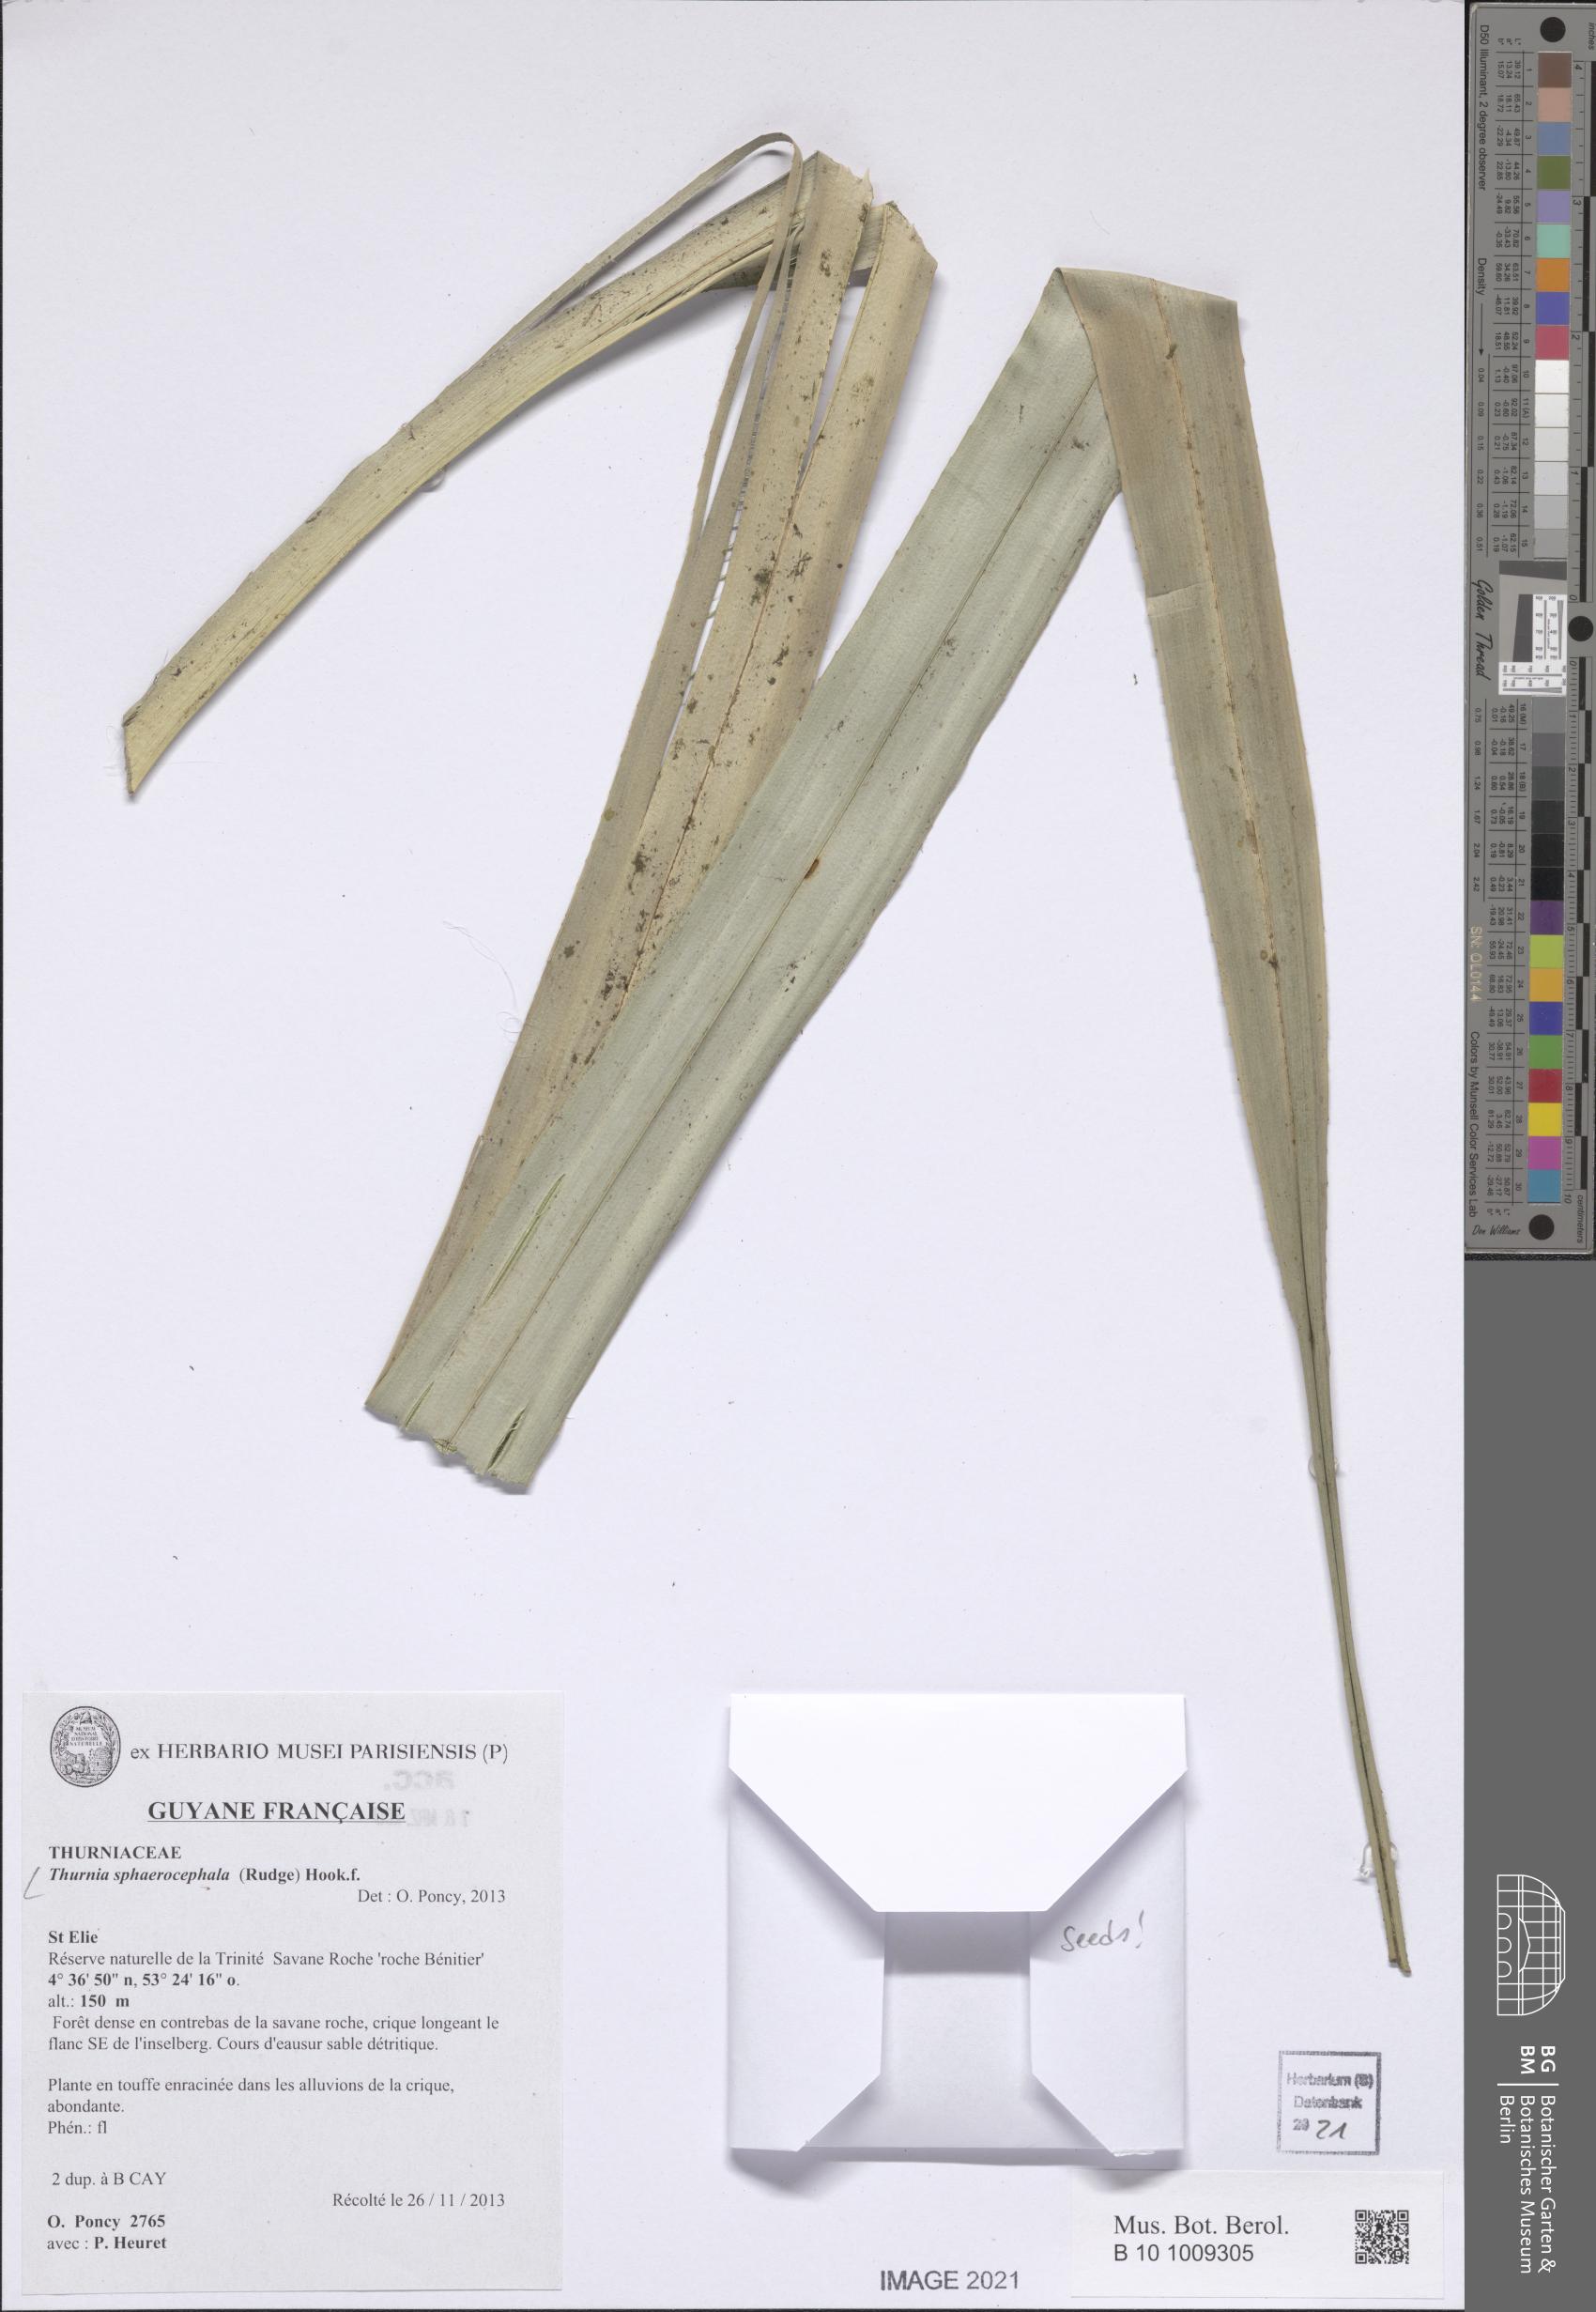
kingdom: Plantae
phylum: Tracheophyta
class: Liliopsida
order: Poales
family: Thurniaceae
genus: Thurnia
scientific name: Thurnia sphaerocephala
